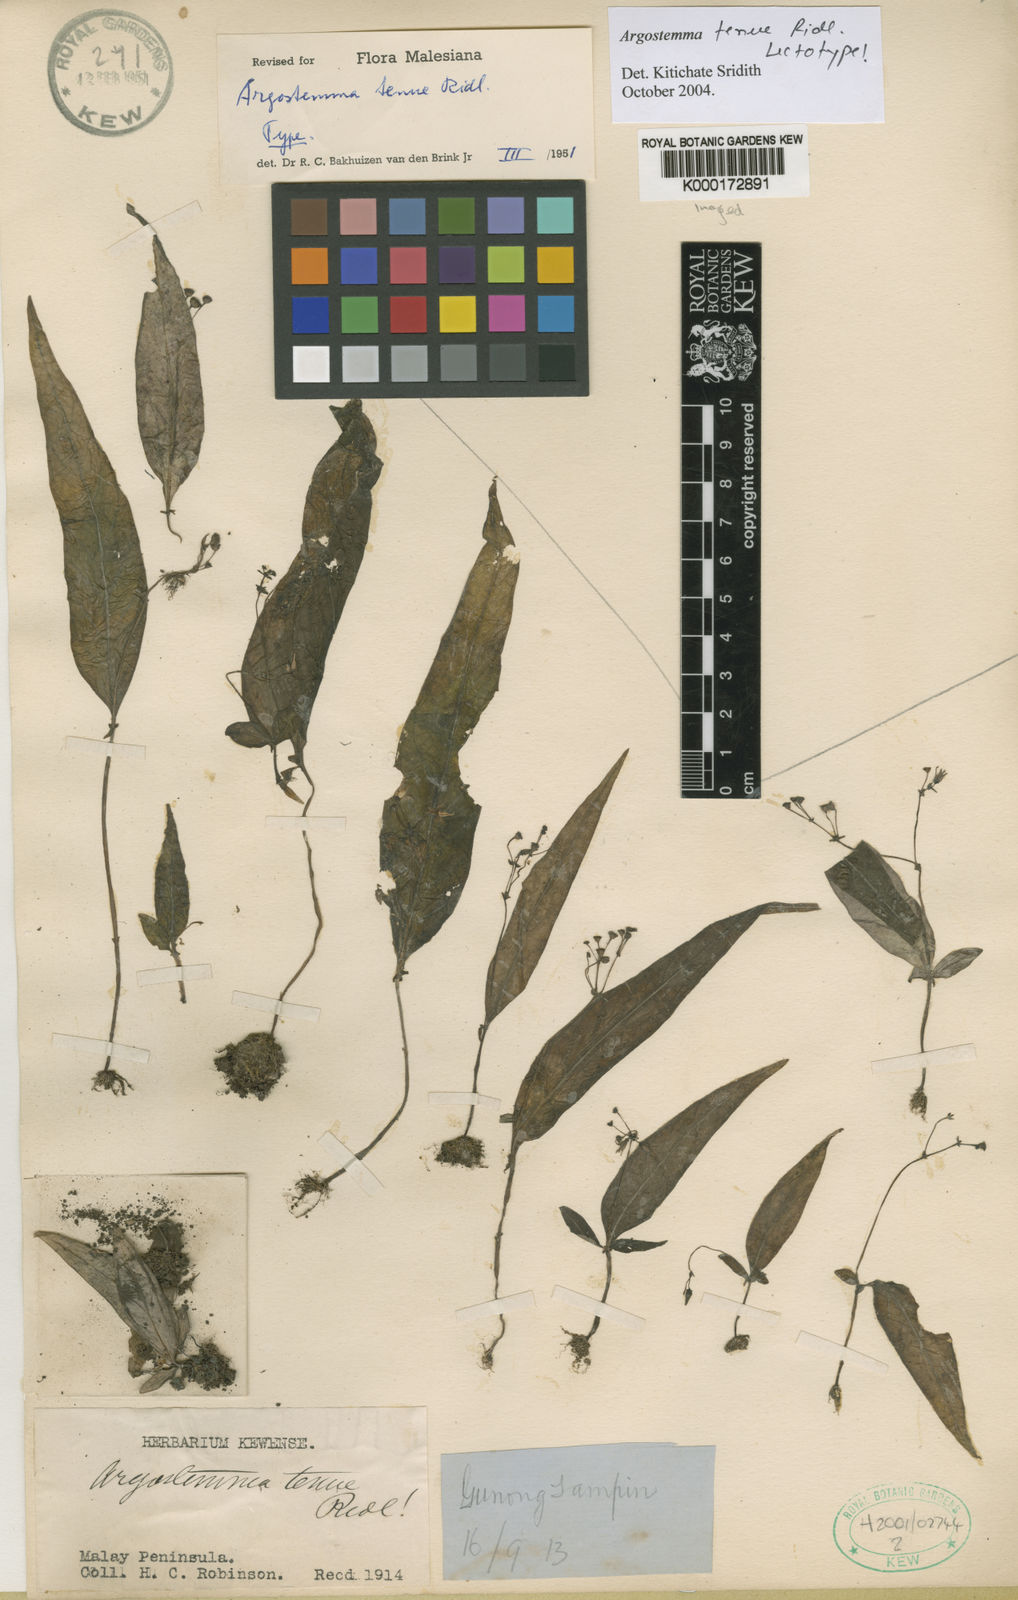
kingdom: Plantae
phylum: Tracheophyta
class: Magnoliopsida
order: Gentianales
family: Rubiaceae
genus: Argostemma
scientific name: Argostemma tenue
